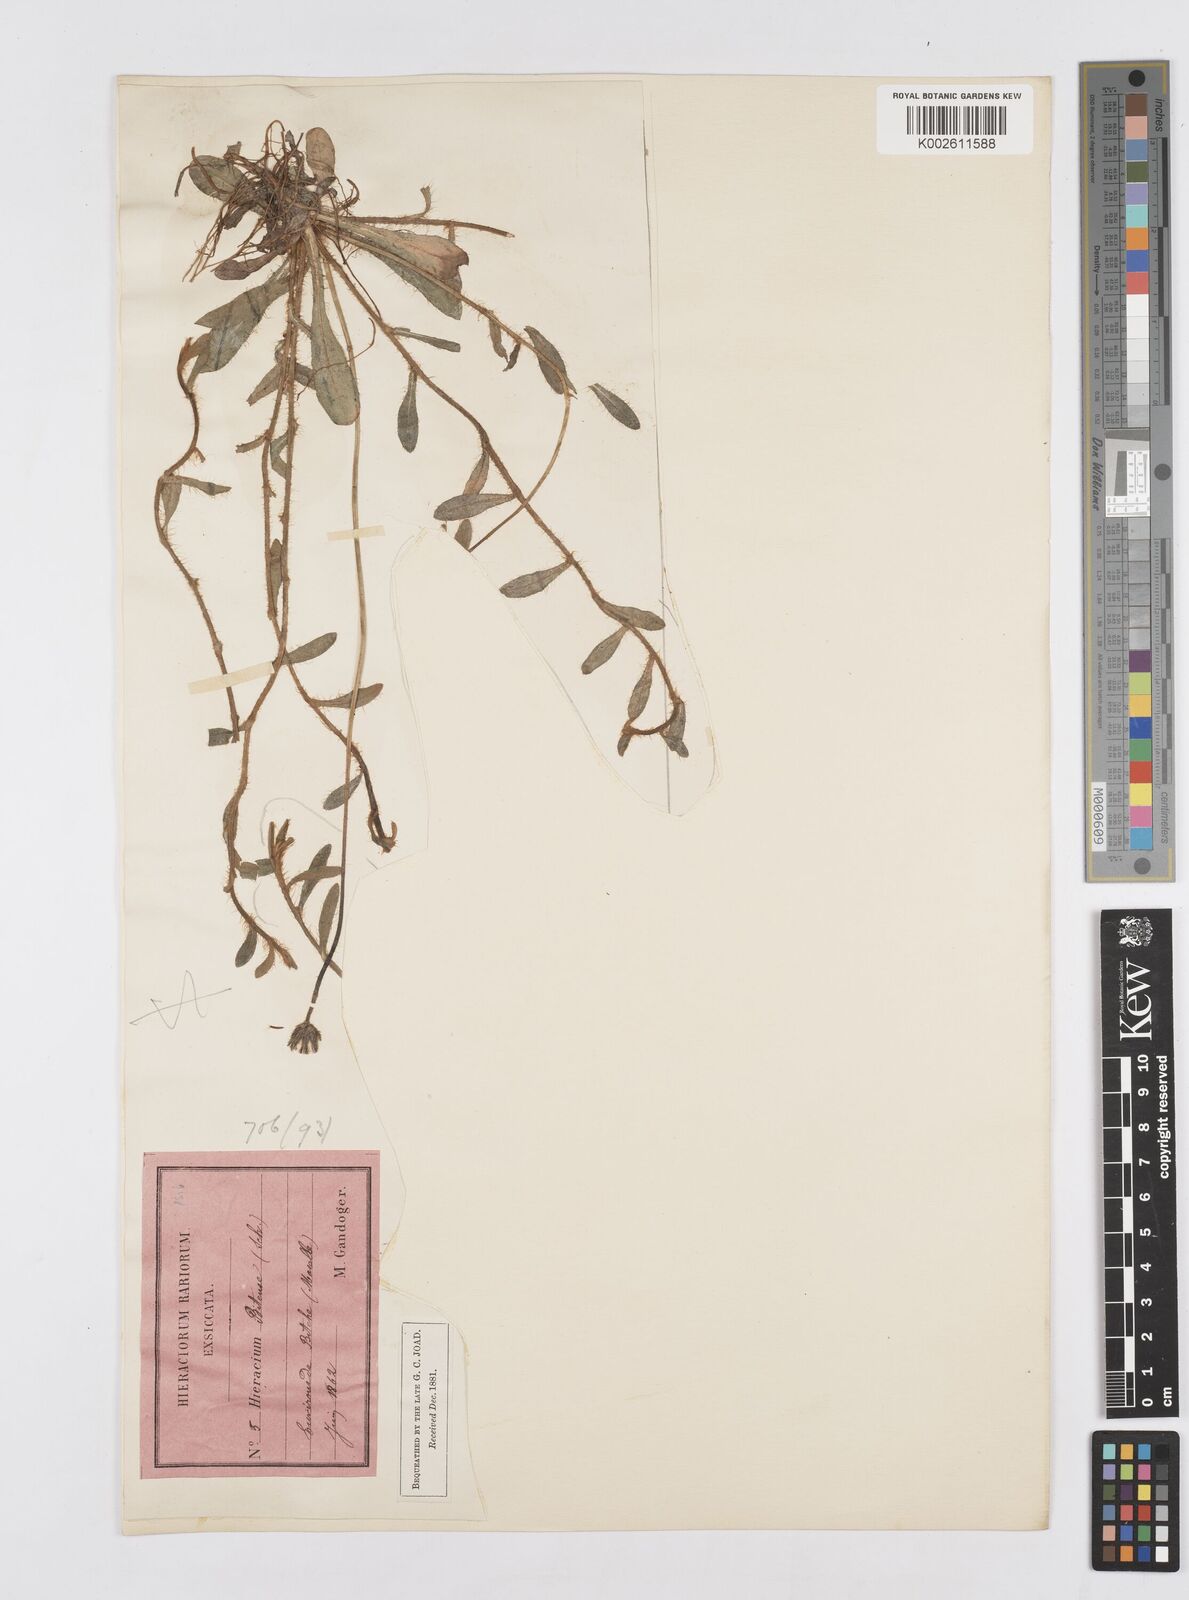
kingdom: Plantae
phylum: Tracheophyta
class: Magnoliopsida
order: Asterales
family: Asteraceae
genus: Pilosella
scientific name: Pilosella acutifolia
